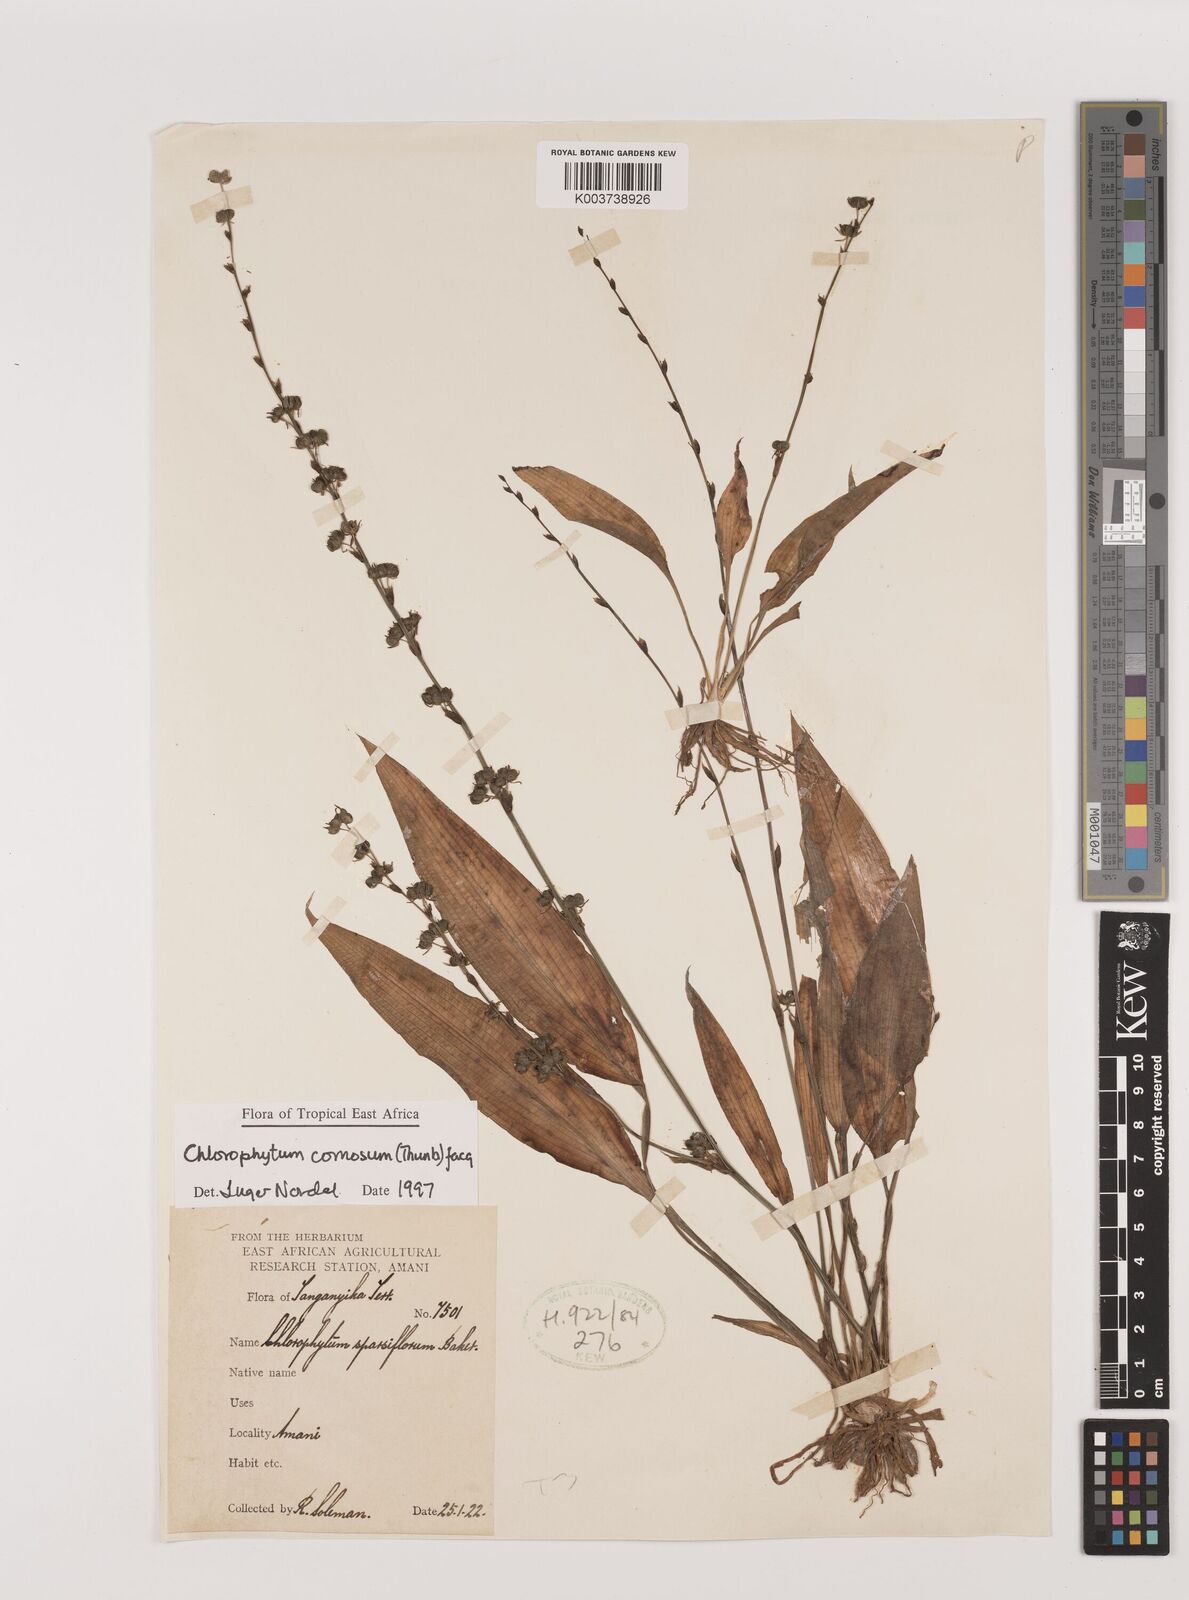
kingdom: Plantae
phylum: Tracheophyta
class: Liliopsida
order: Asparagales
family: Asparagaceae
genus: Chlorophytum
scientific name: Chlorophytum comosum
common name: Spider plant
